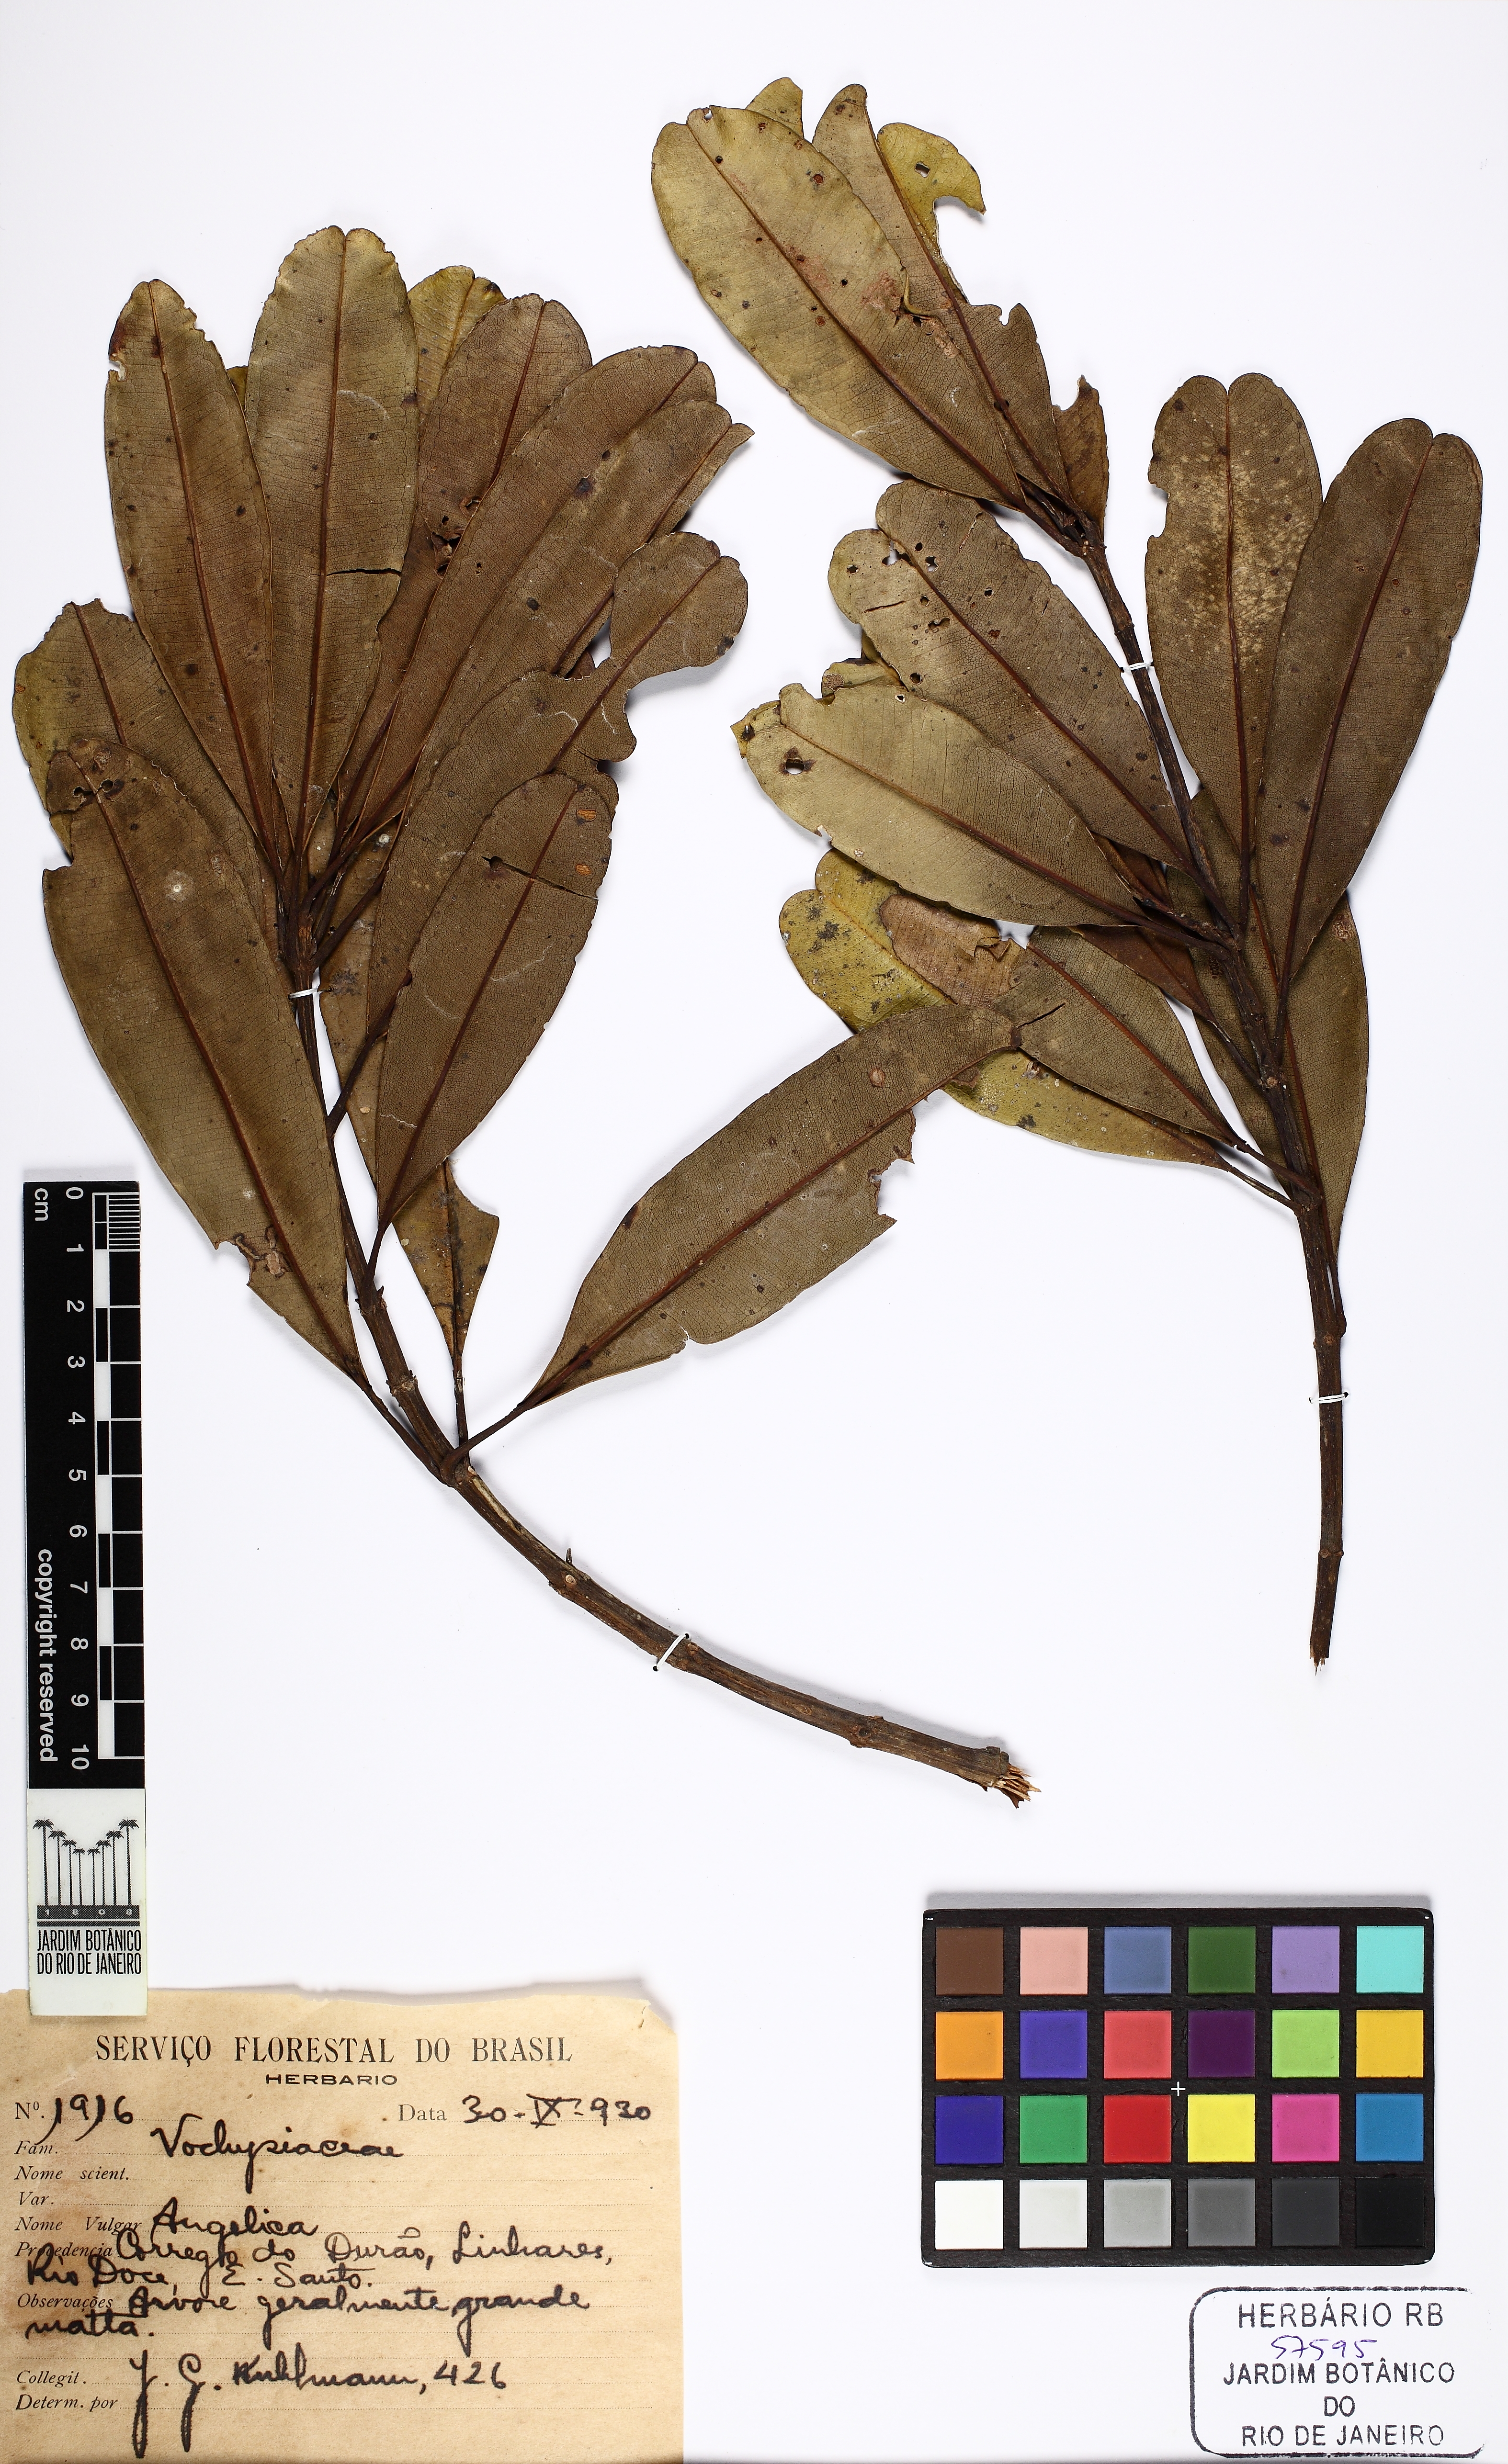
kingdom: Plantae
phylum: Tracheophyta
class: Magnoliopsida
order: Myrtales
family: Vochysiaceae
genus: Vochysia
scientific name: Vochysia angelica
